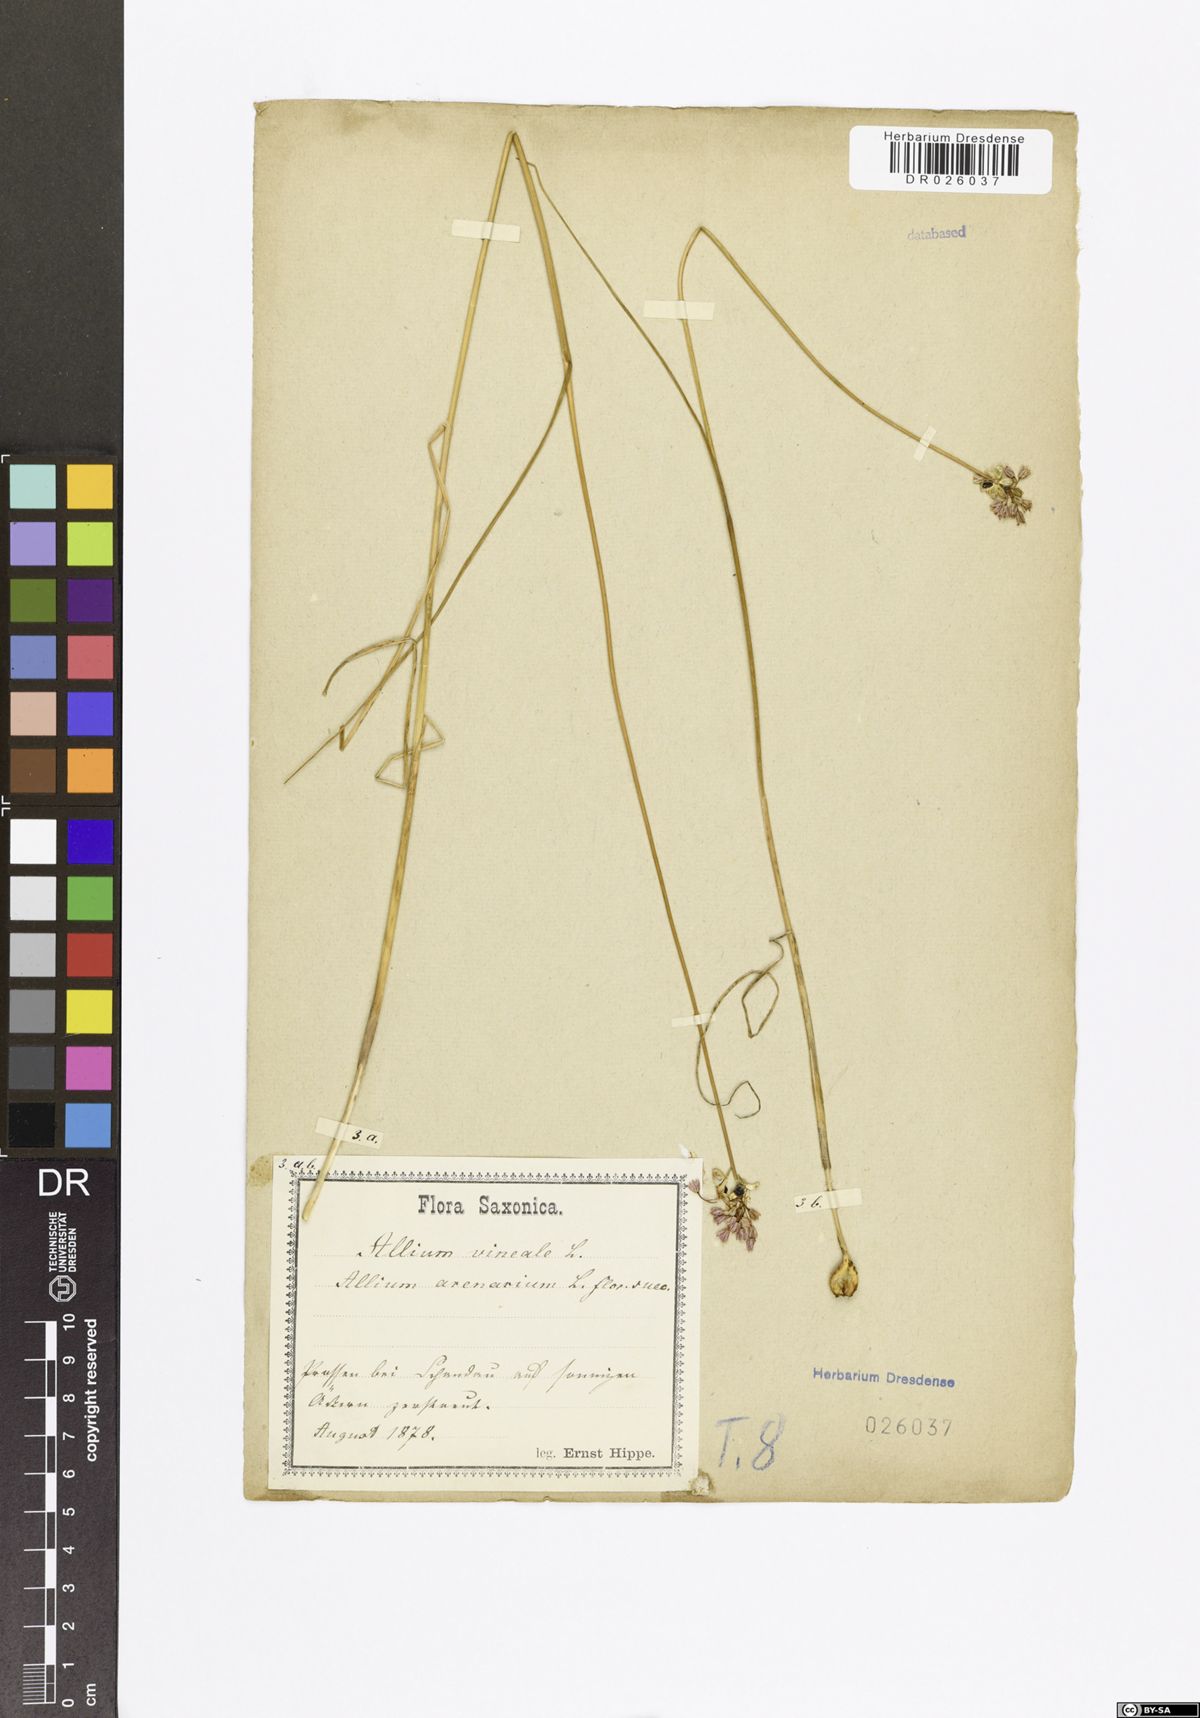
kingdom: Plantae
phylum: Tracheophyta
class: Liliopsida
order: Asparagales
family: Amaryllidaceae
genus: Allium
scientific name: Allium vineale
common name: Crow garlic
